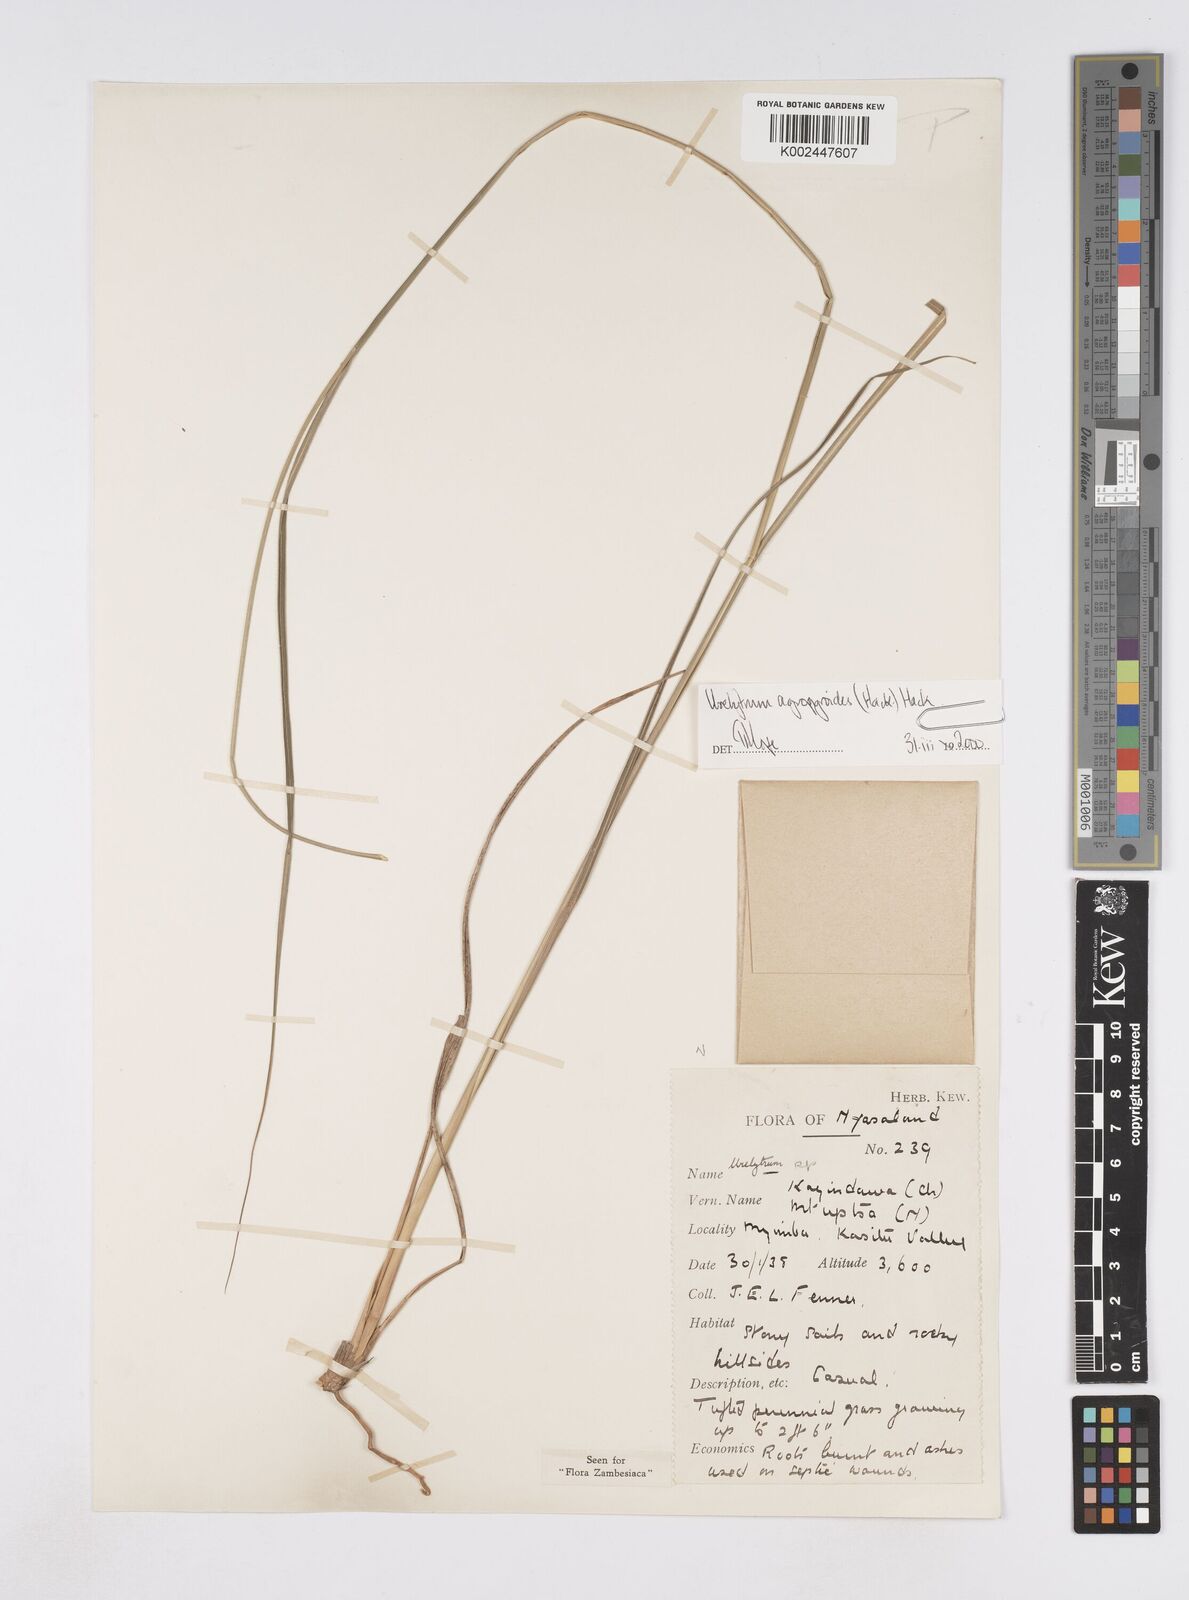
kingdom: Plantae
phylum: Tracheophyta
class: Liliopsida
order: Poales
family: Poaceae
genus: Urelytrum
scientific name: Urelytrum agropyroides
